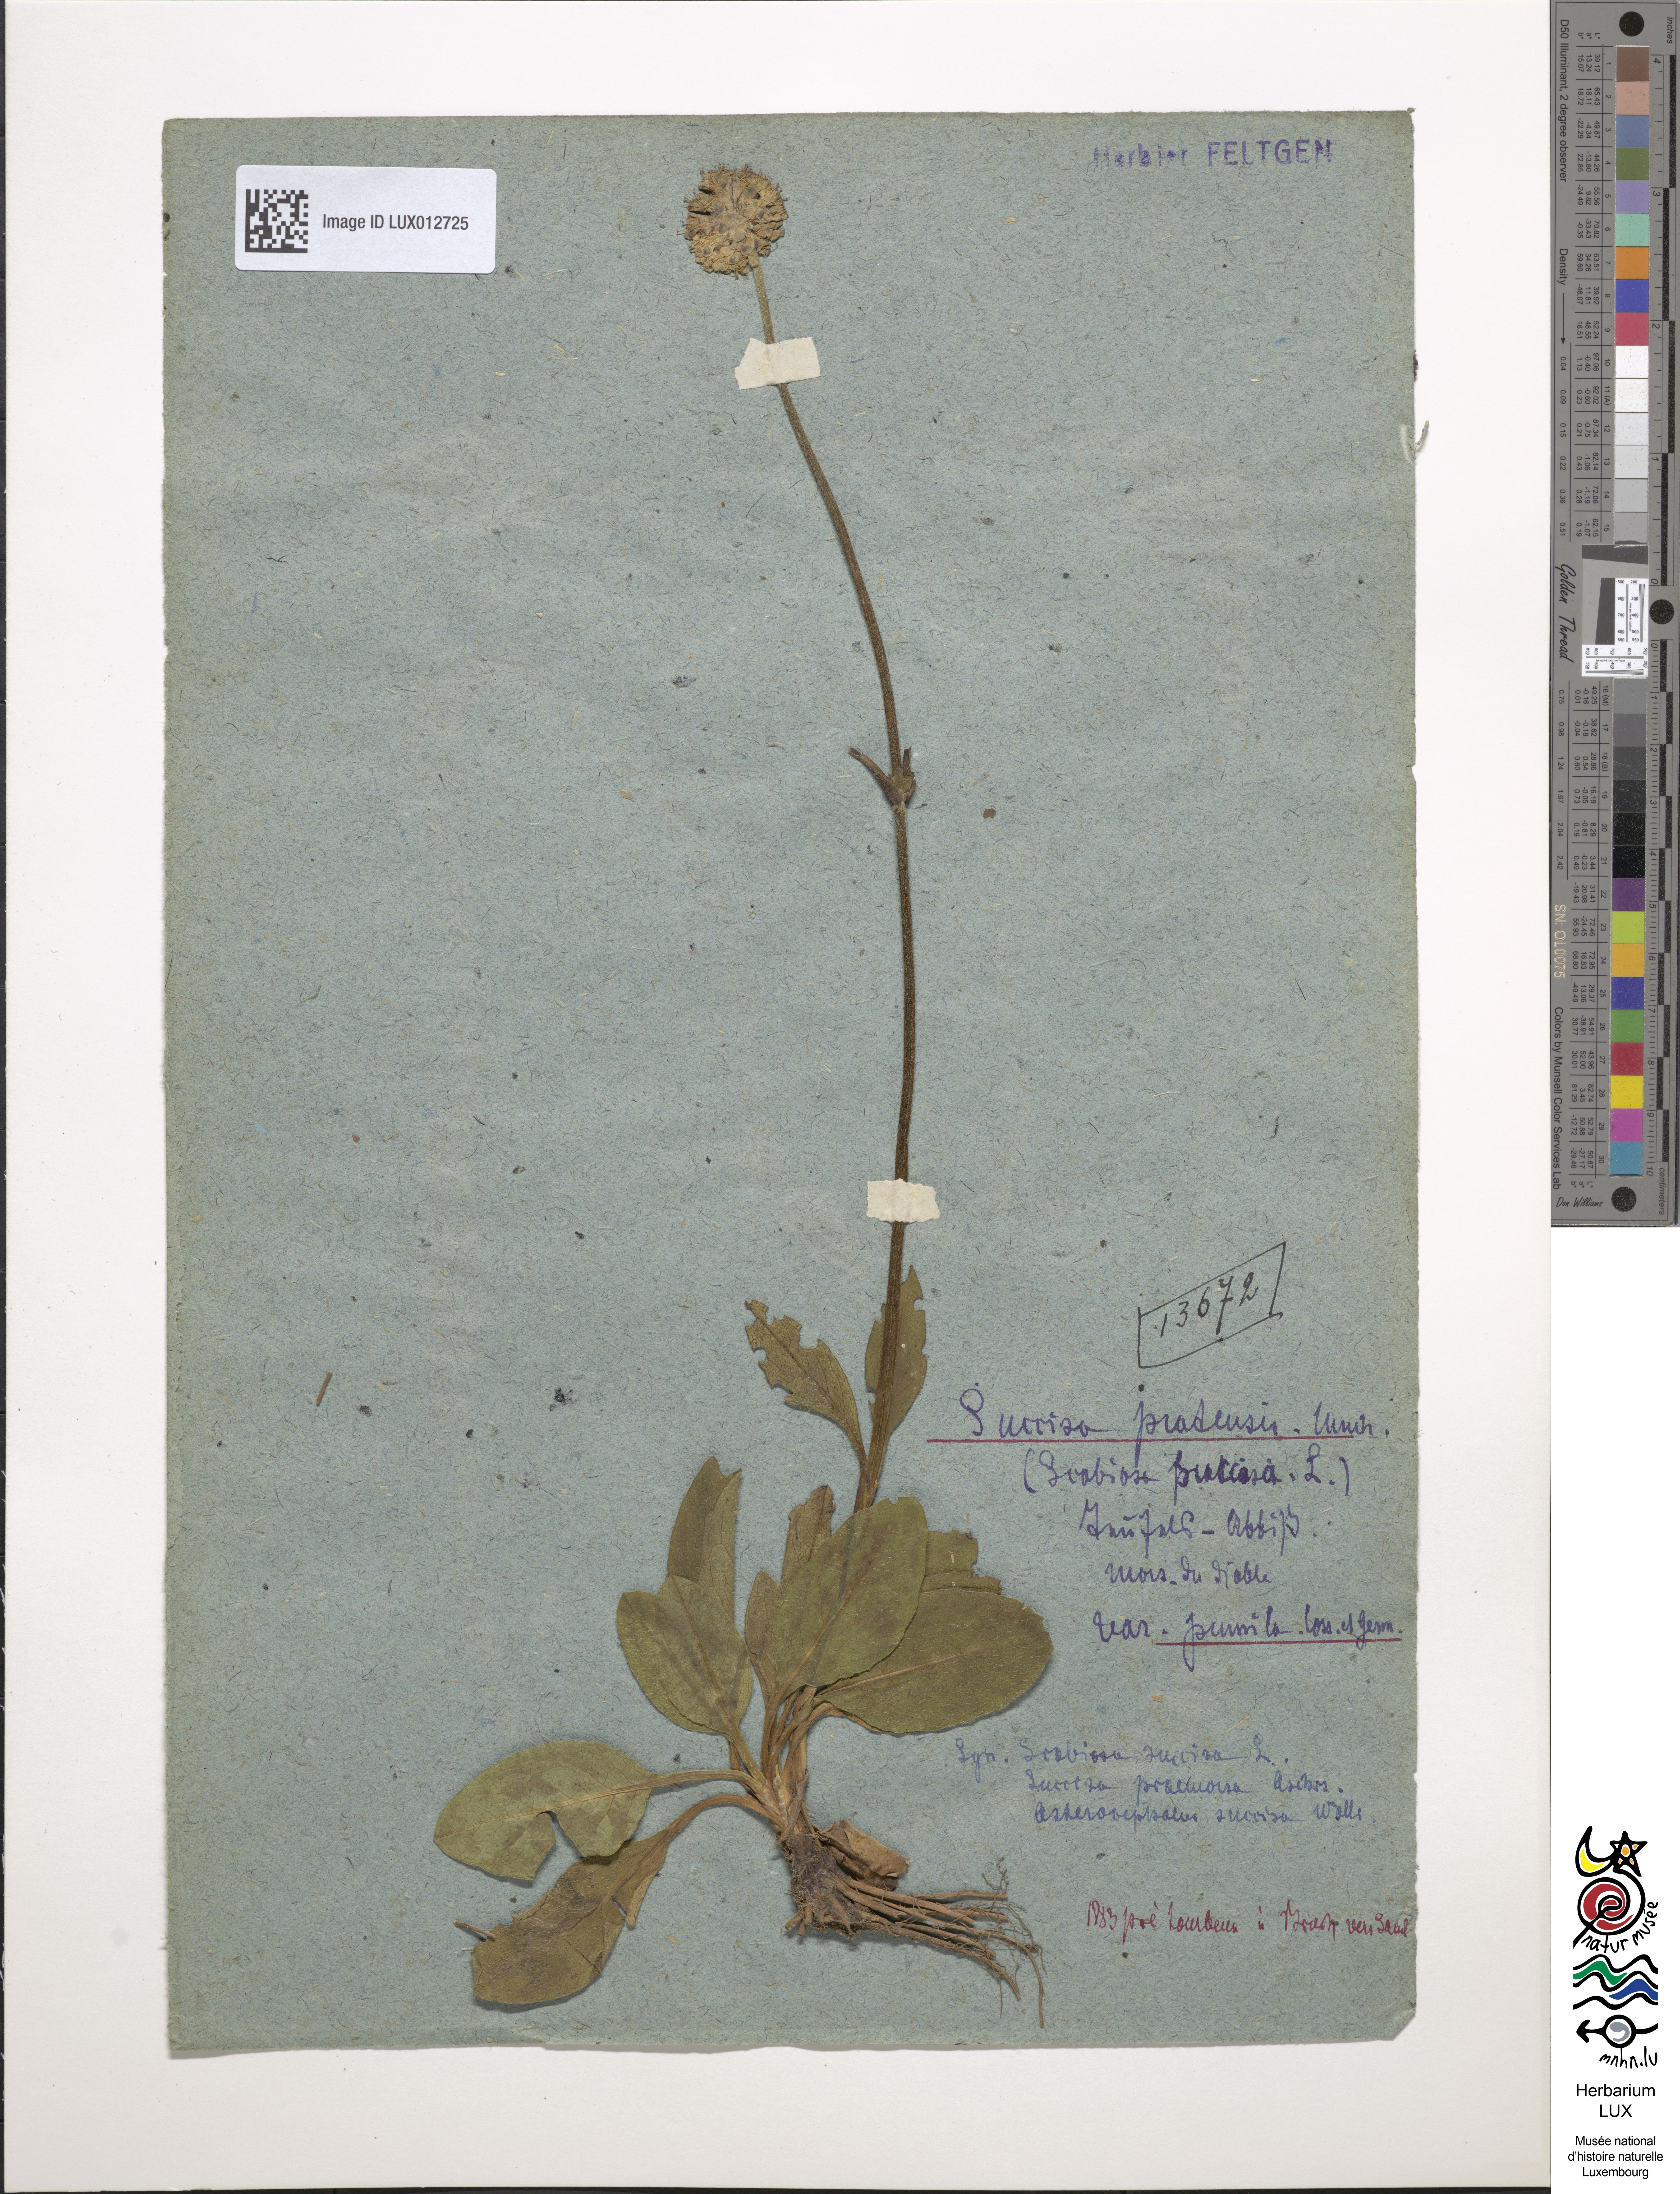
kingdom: Plantae
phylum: Tracheophyta
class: Magnoliopsida
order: Dipsacales
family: Caprifoliaceae
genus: Succisa
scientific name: Succisa pratensis
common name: Devil's-bit
